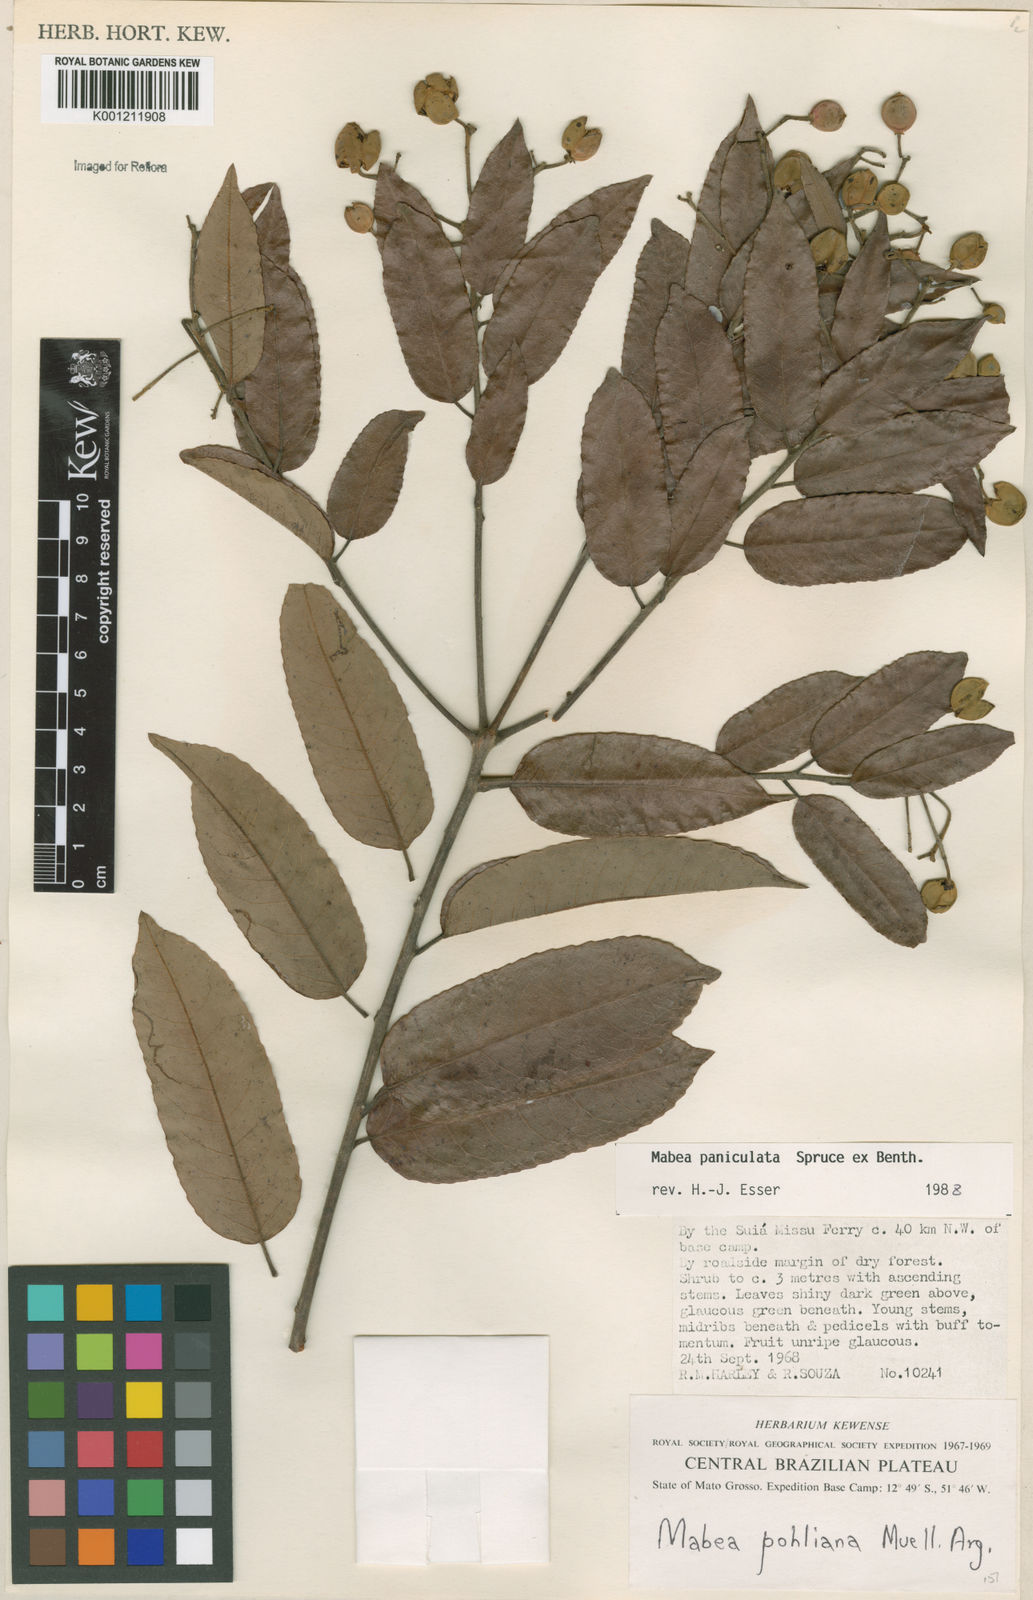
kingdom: Plantae
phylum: Tracheophyta
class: Magnoliopsida
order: Malpighiales
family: Euphorbiaceae
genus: Mabea
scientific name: Mabea paniculata
